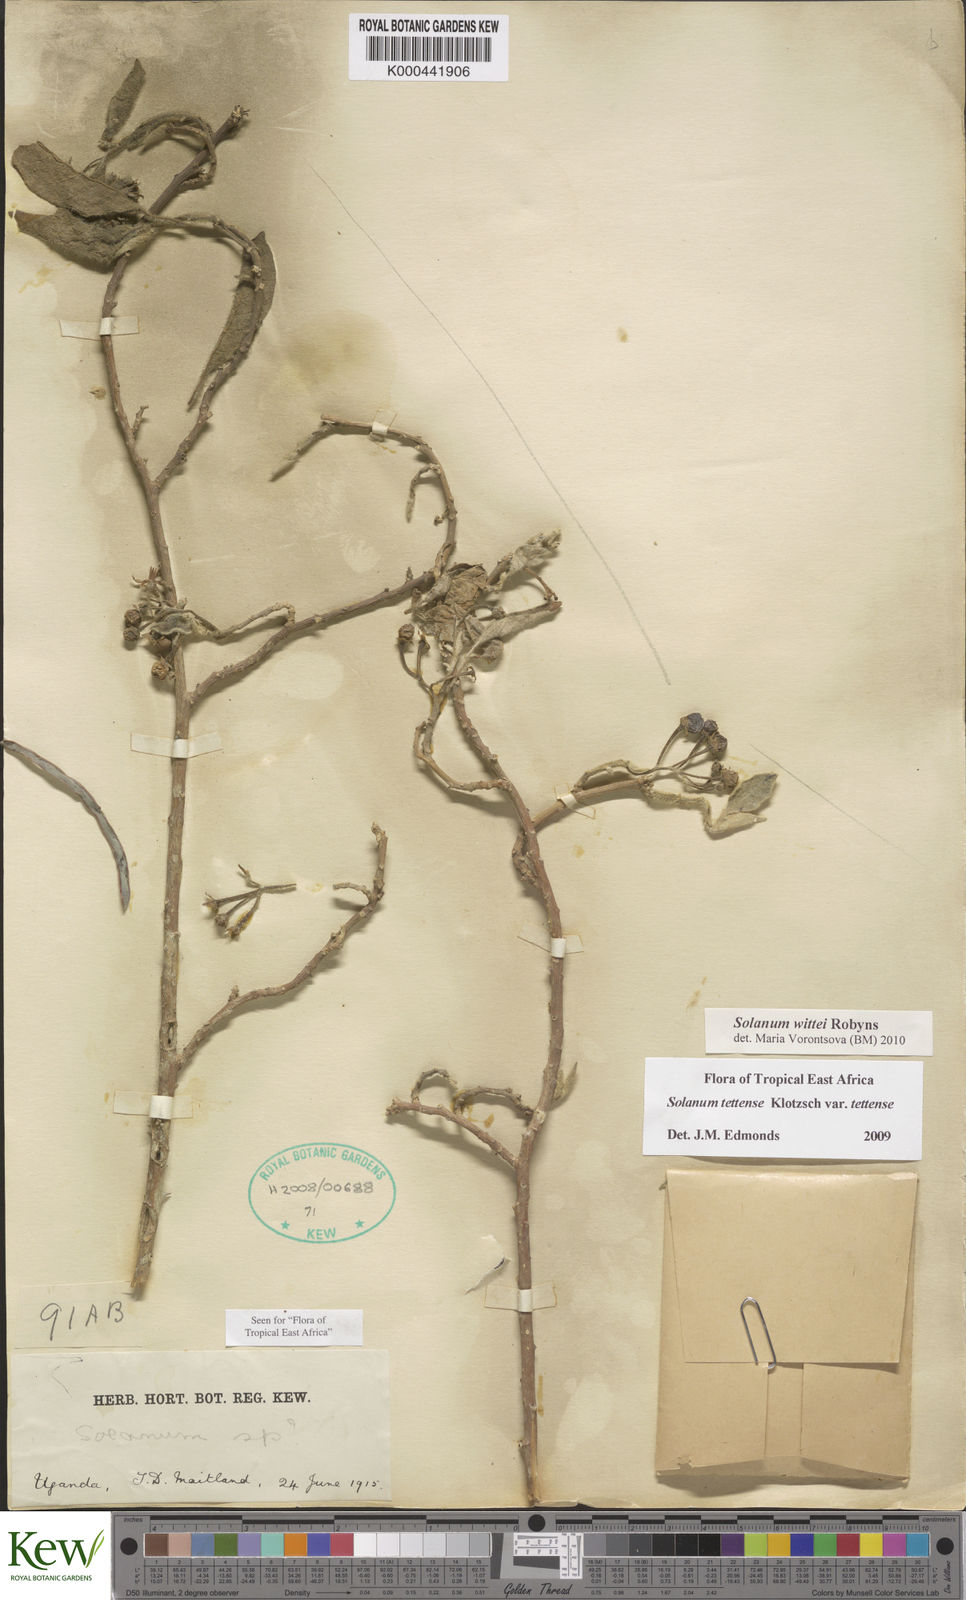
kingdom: Plantae
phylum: Tracheophyta
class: Magnoliopsida
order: Solanales
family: Solanaceae
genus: Solanum
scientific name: Solanum wittei
